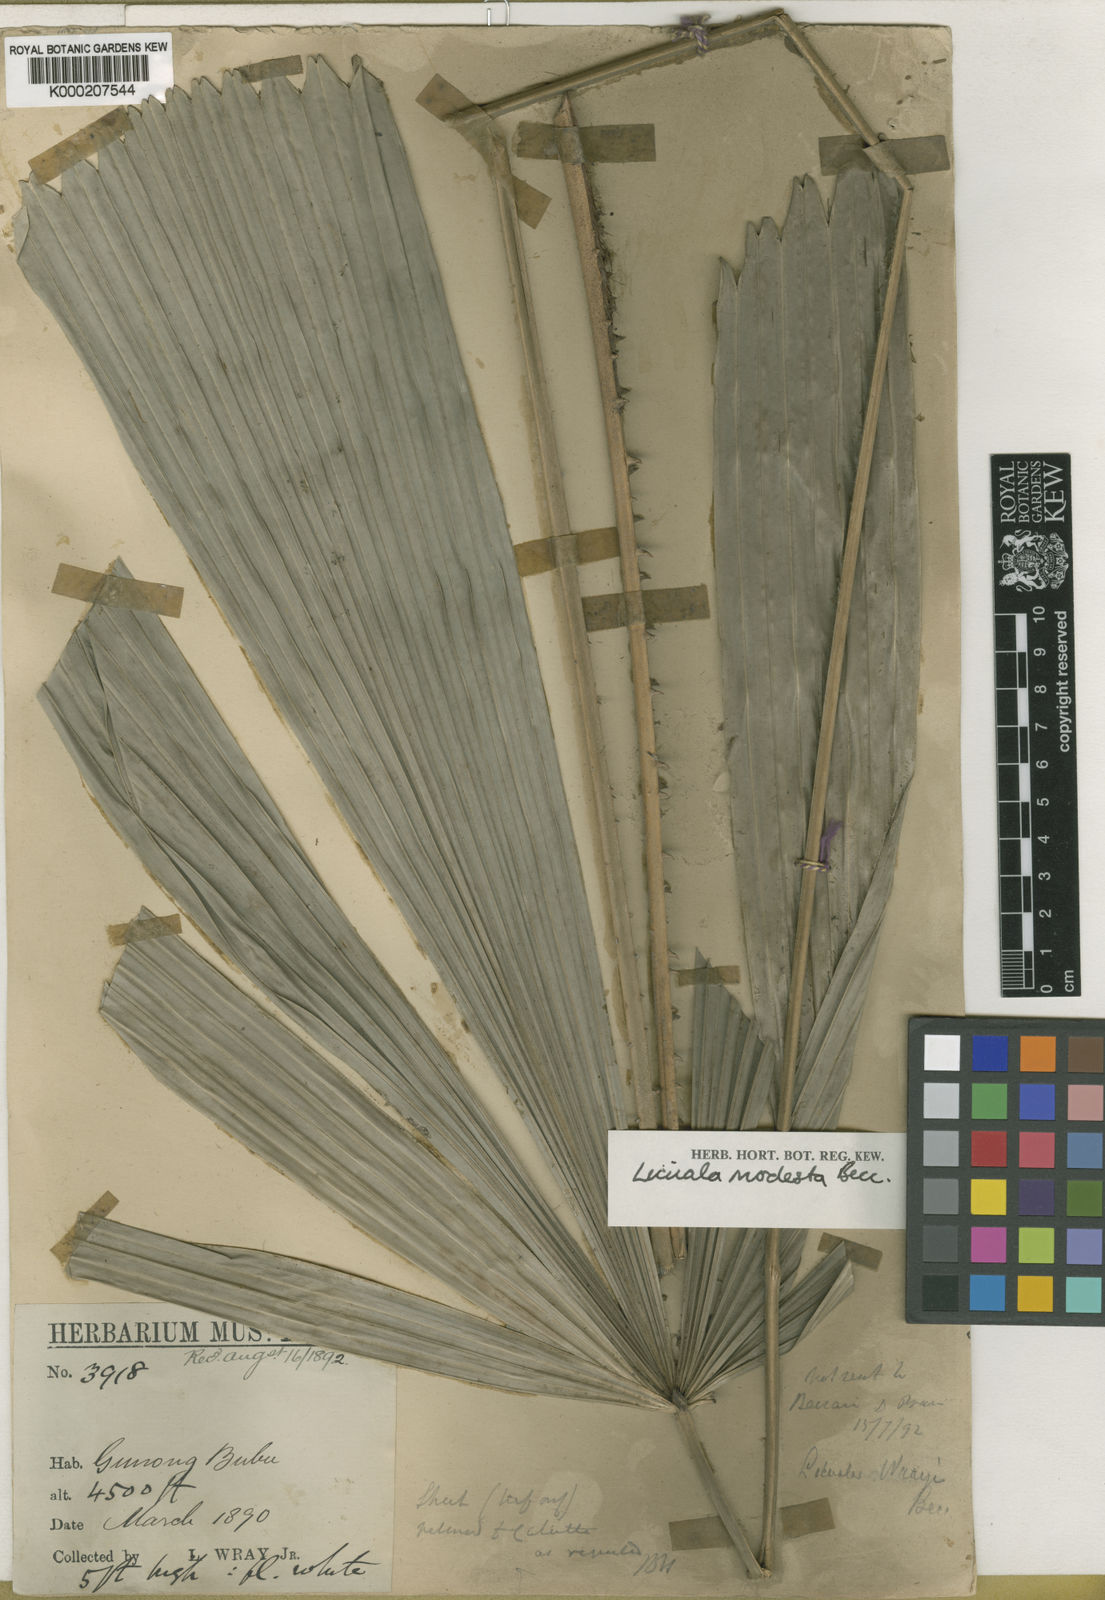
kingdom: Plantae
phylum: Tracheophyta
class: Liliopsida
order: Arecales
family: Arecaceae
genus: Licuala
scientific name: Licuala
